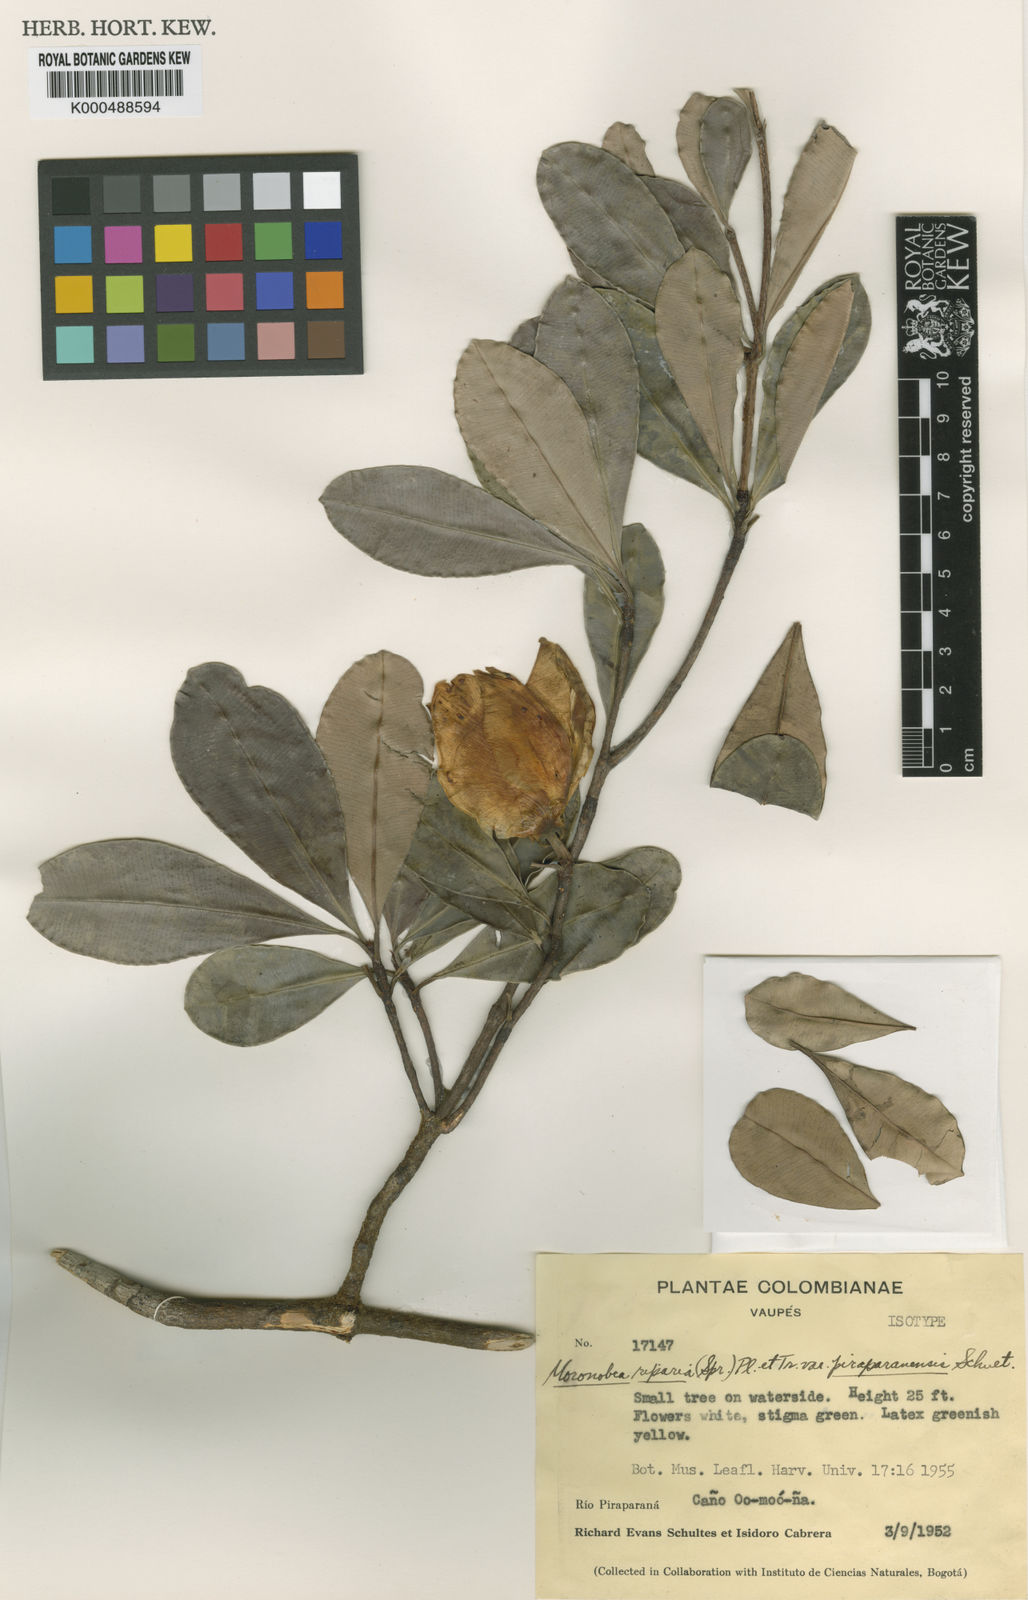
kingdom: Plantae
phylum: Tracheophyta
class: Magnoliopsida
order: Malpighiales
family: Clusiaceae
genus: Moronobea
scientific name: Moronobea riparia
